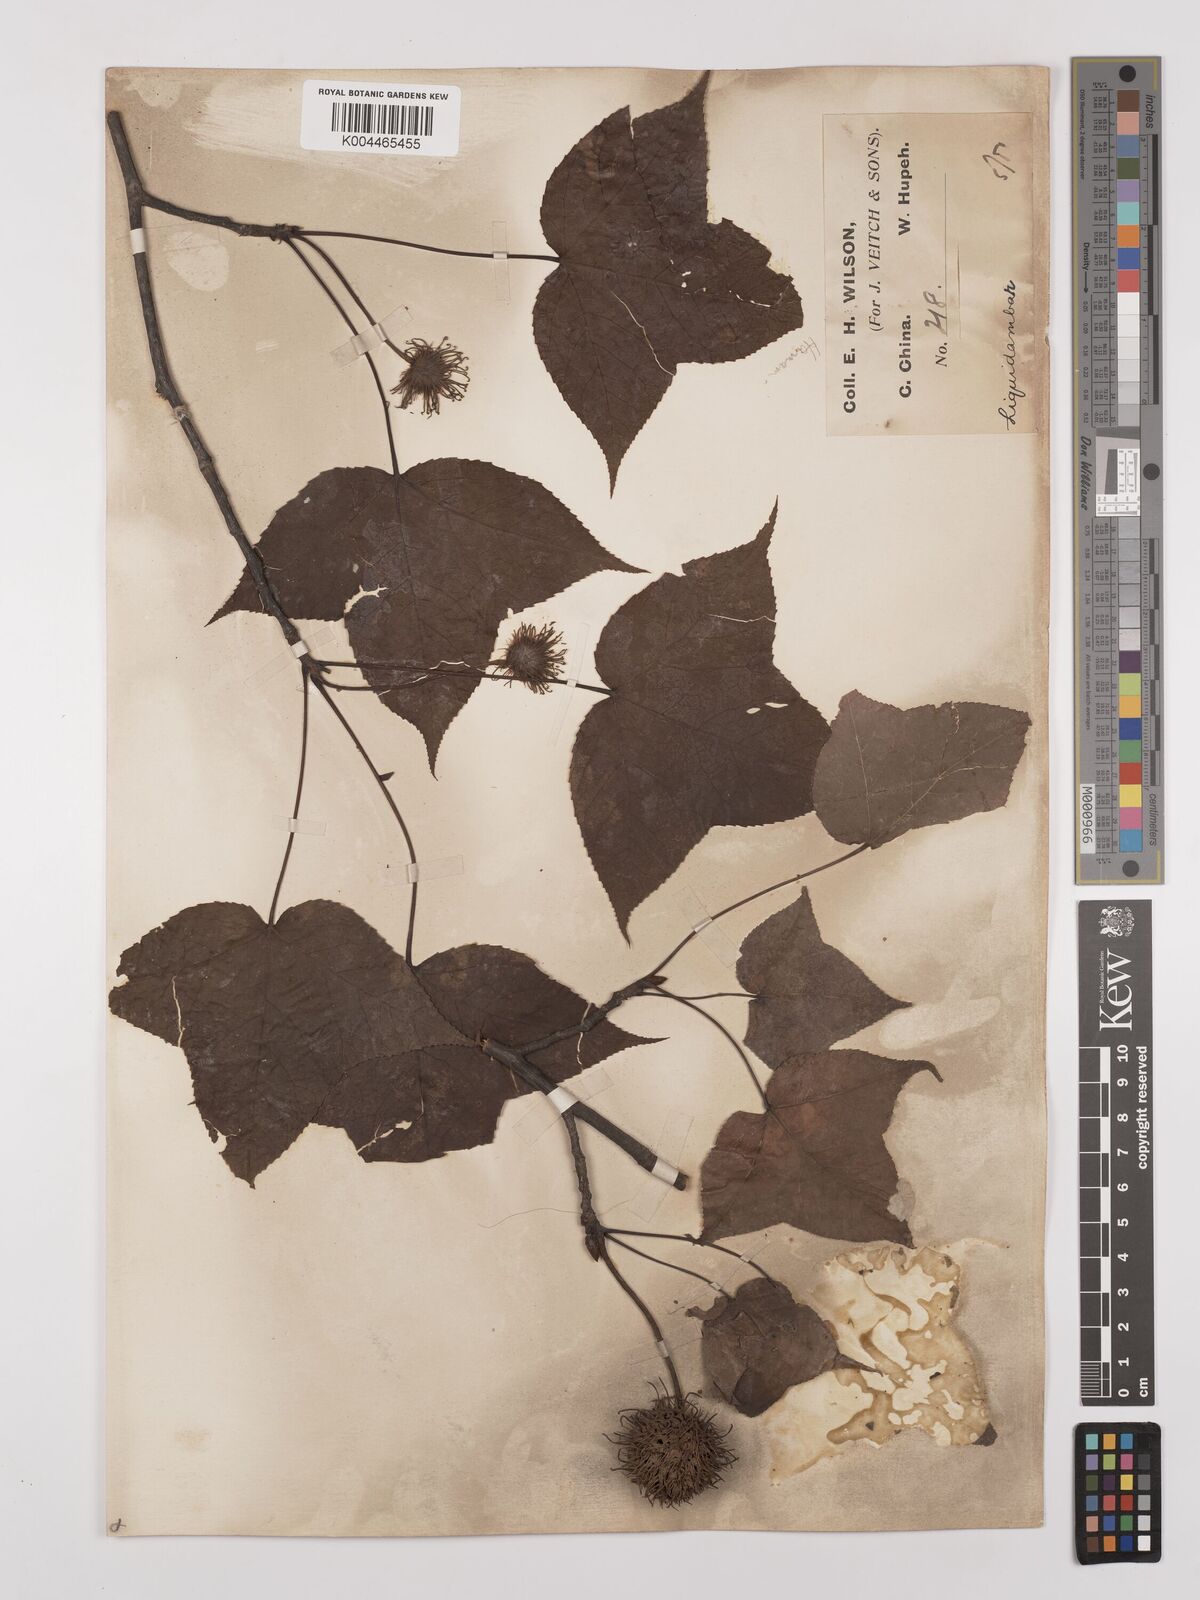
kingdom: Plantae
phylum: Tracheophyta
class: Magnoliopsida
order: Saxifragales
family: Altingiaceae
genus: Liquidambar
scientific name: Liquidambar formosana
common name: Chinese sweet gum
